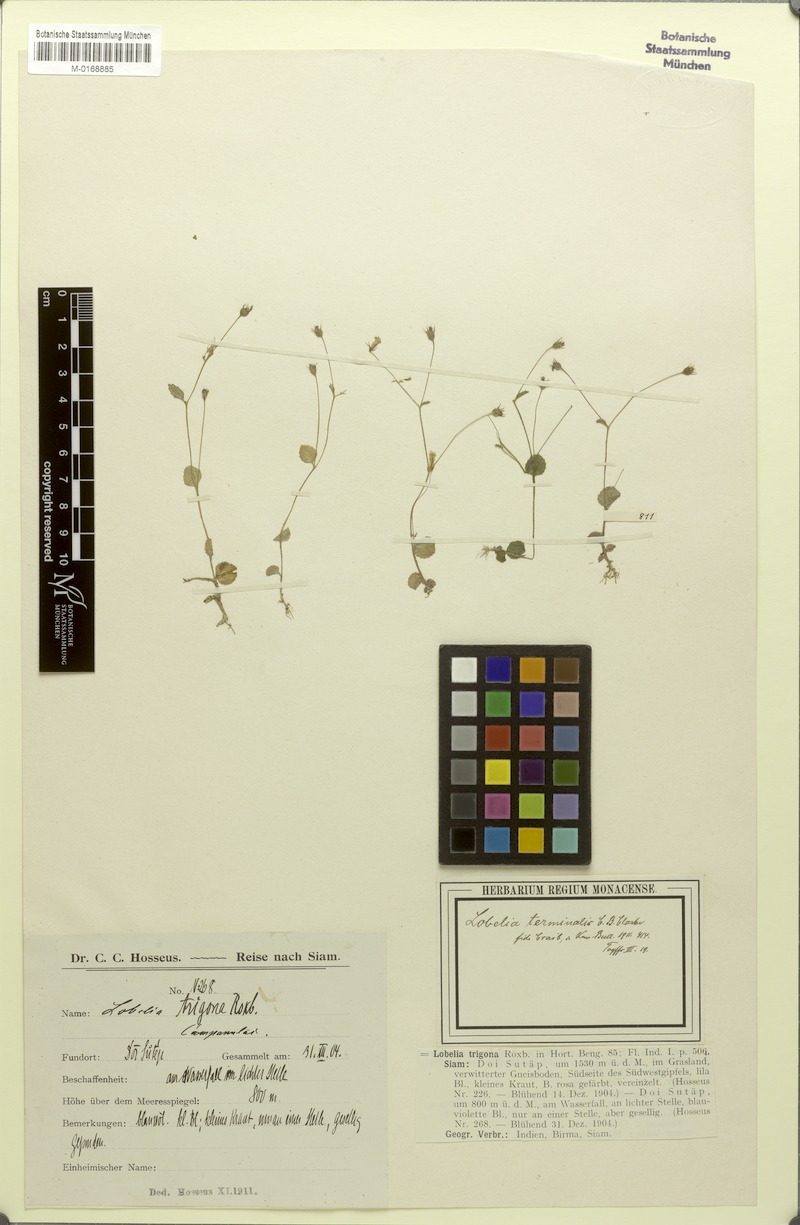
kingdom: Plantae
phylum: Tracheophyta
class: Magnoliopsida
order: Asterales
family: Campanulaceae
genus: Lobelia
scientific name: Lobelia terminalis
